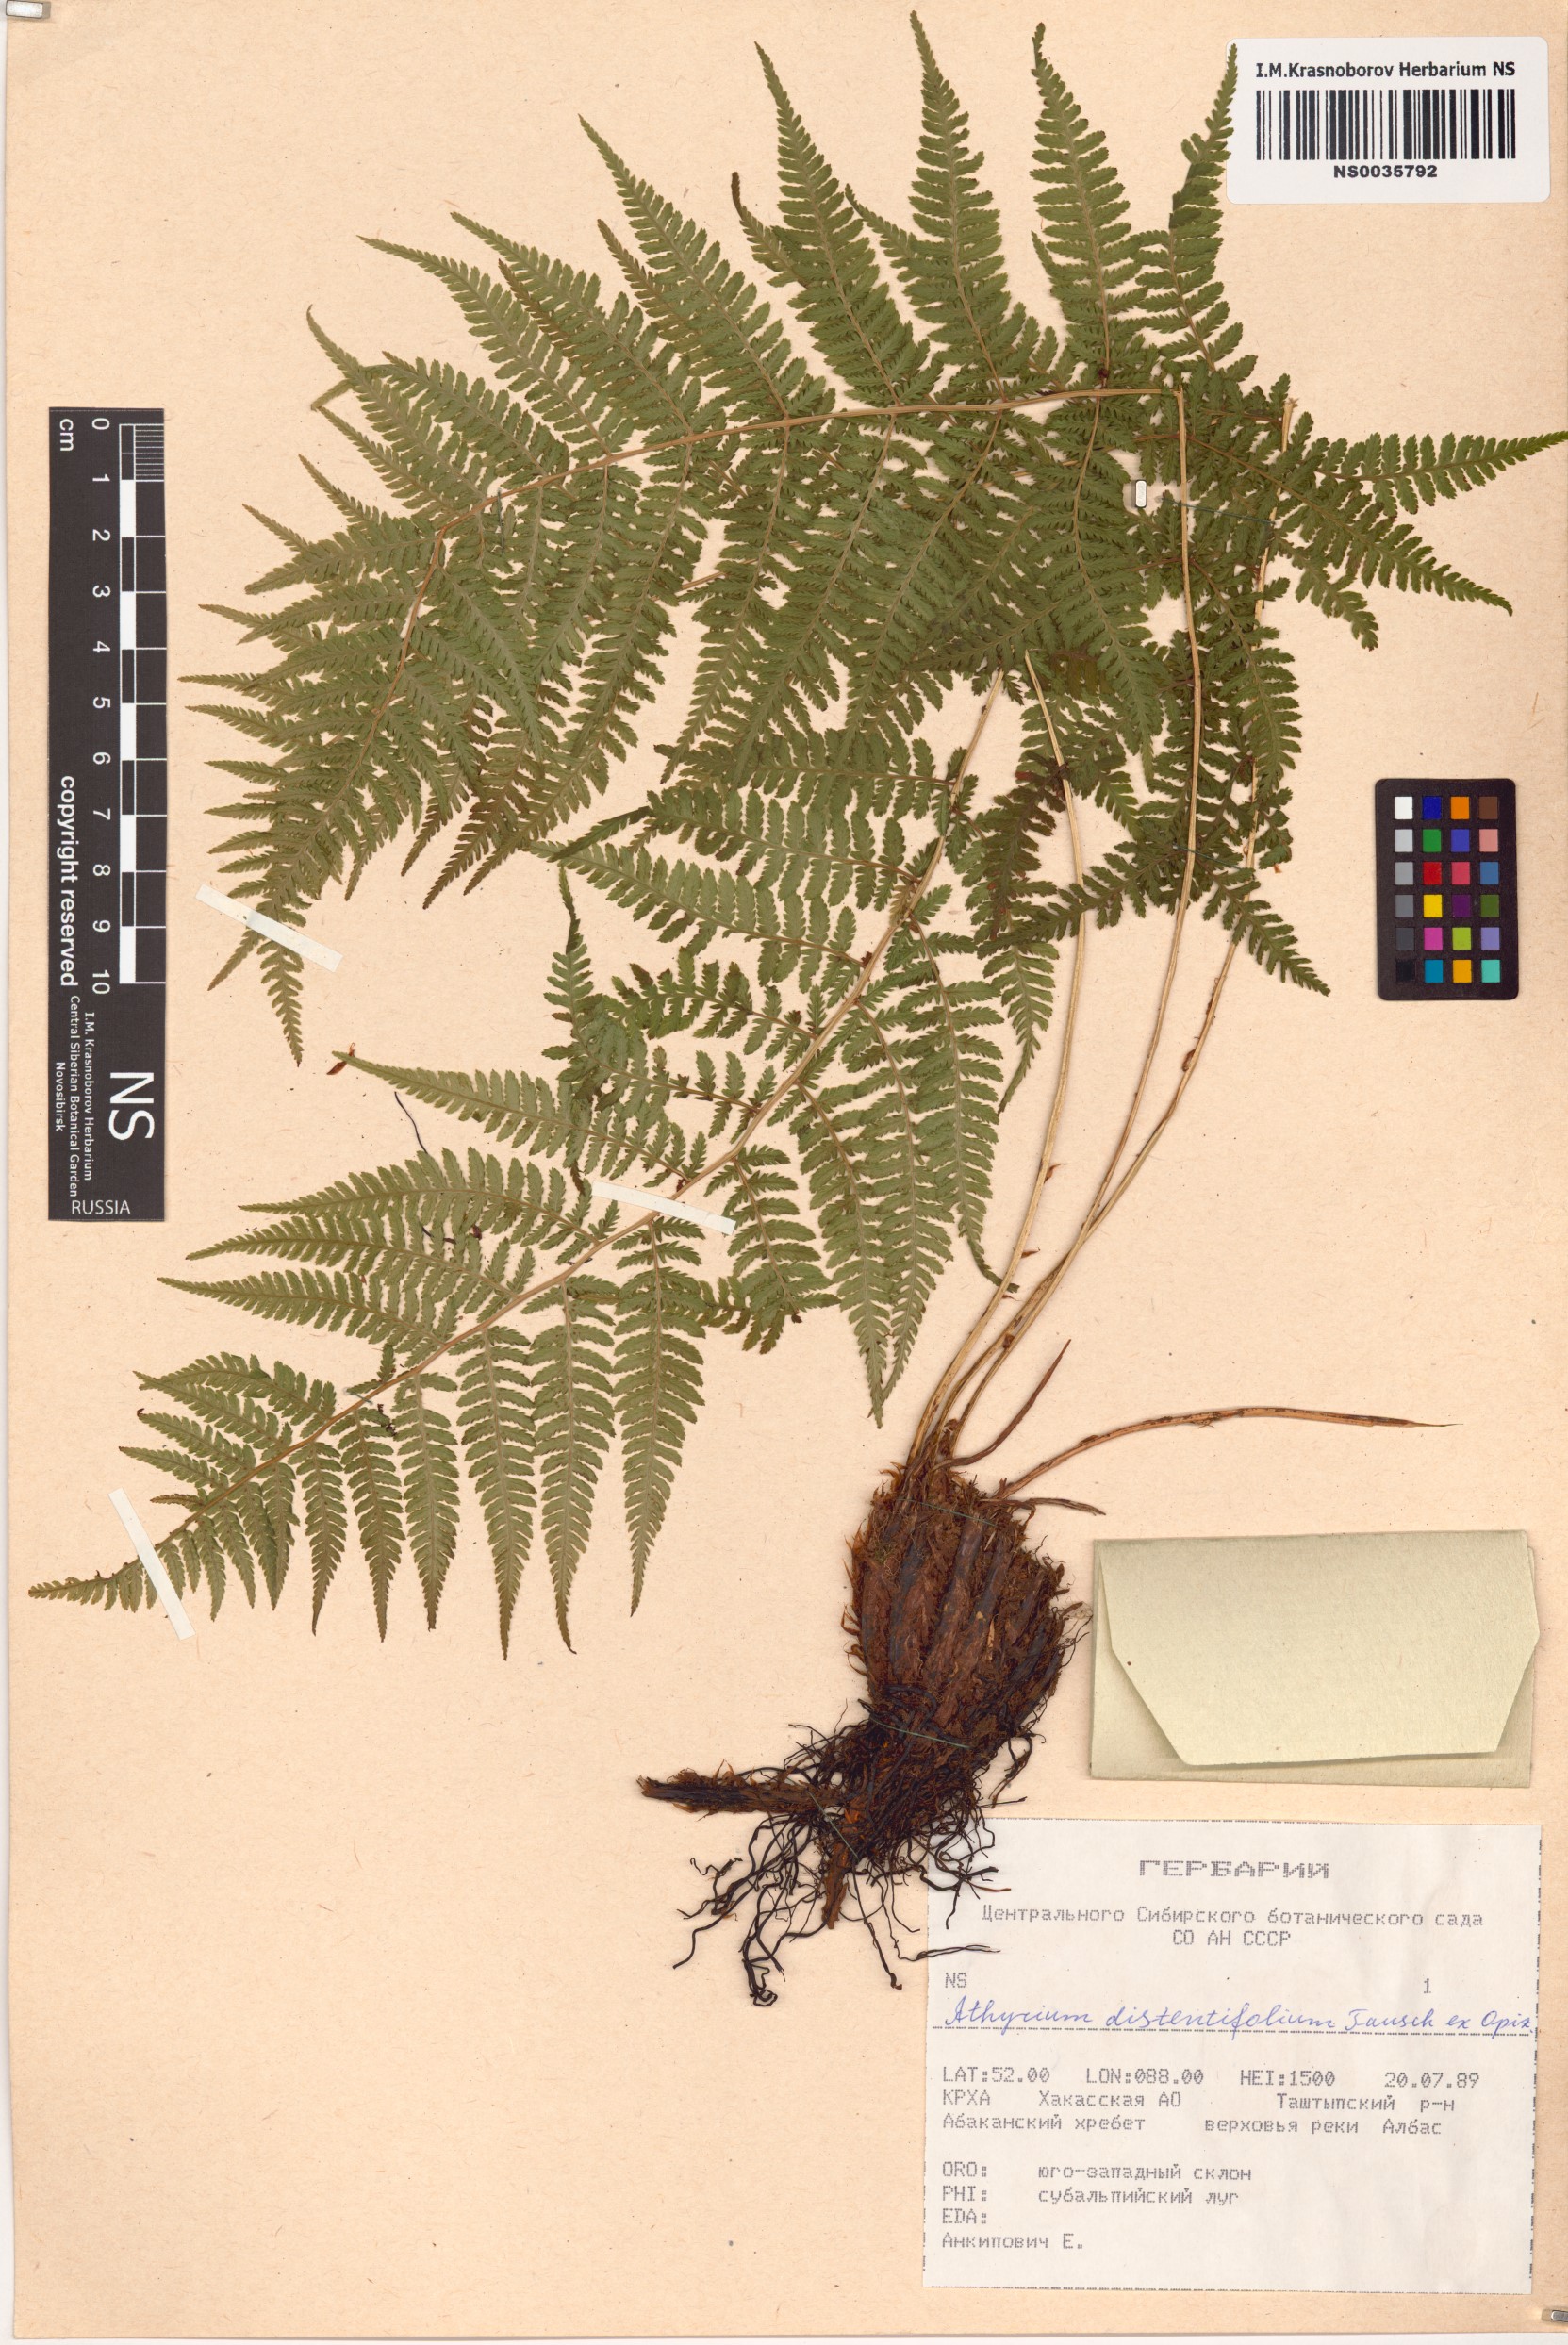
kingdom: Plantae
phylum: Tracheophyta
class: Polypodiopsida
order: Polypodiales
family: Athyriaceae
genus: Pseudathyrium
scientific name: Pseudathyrium alpestre
